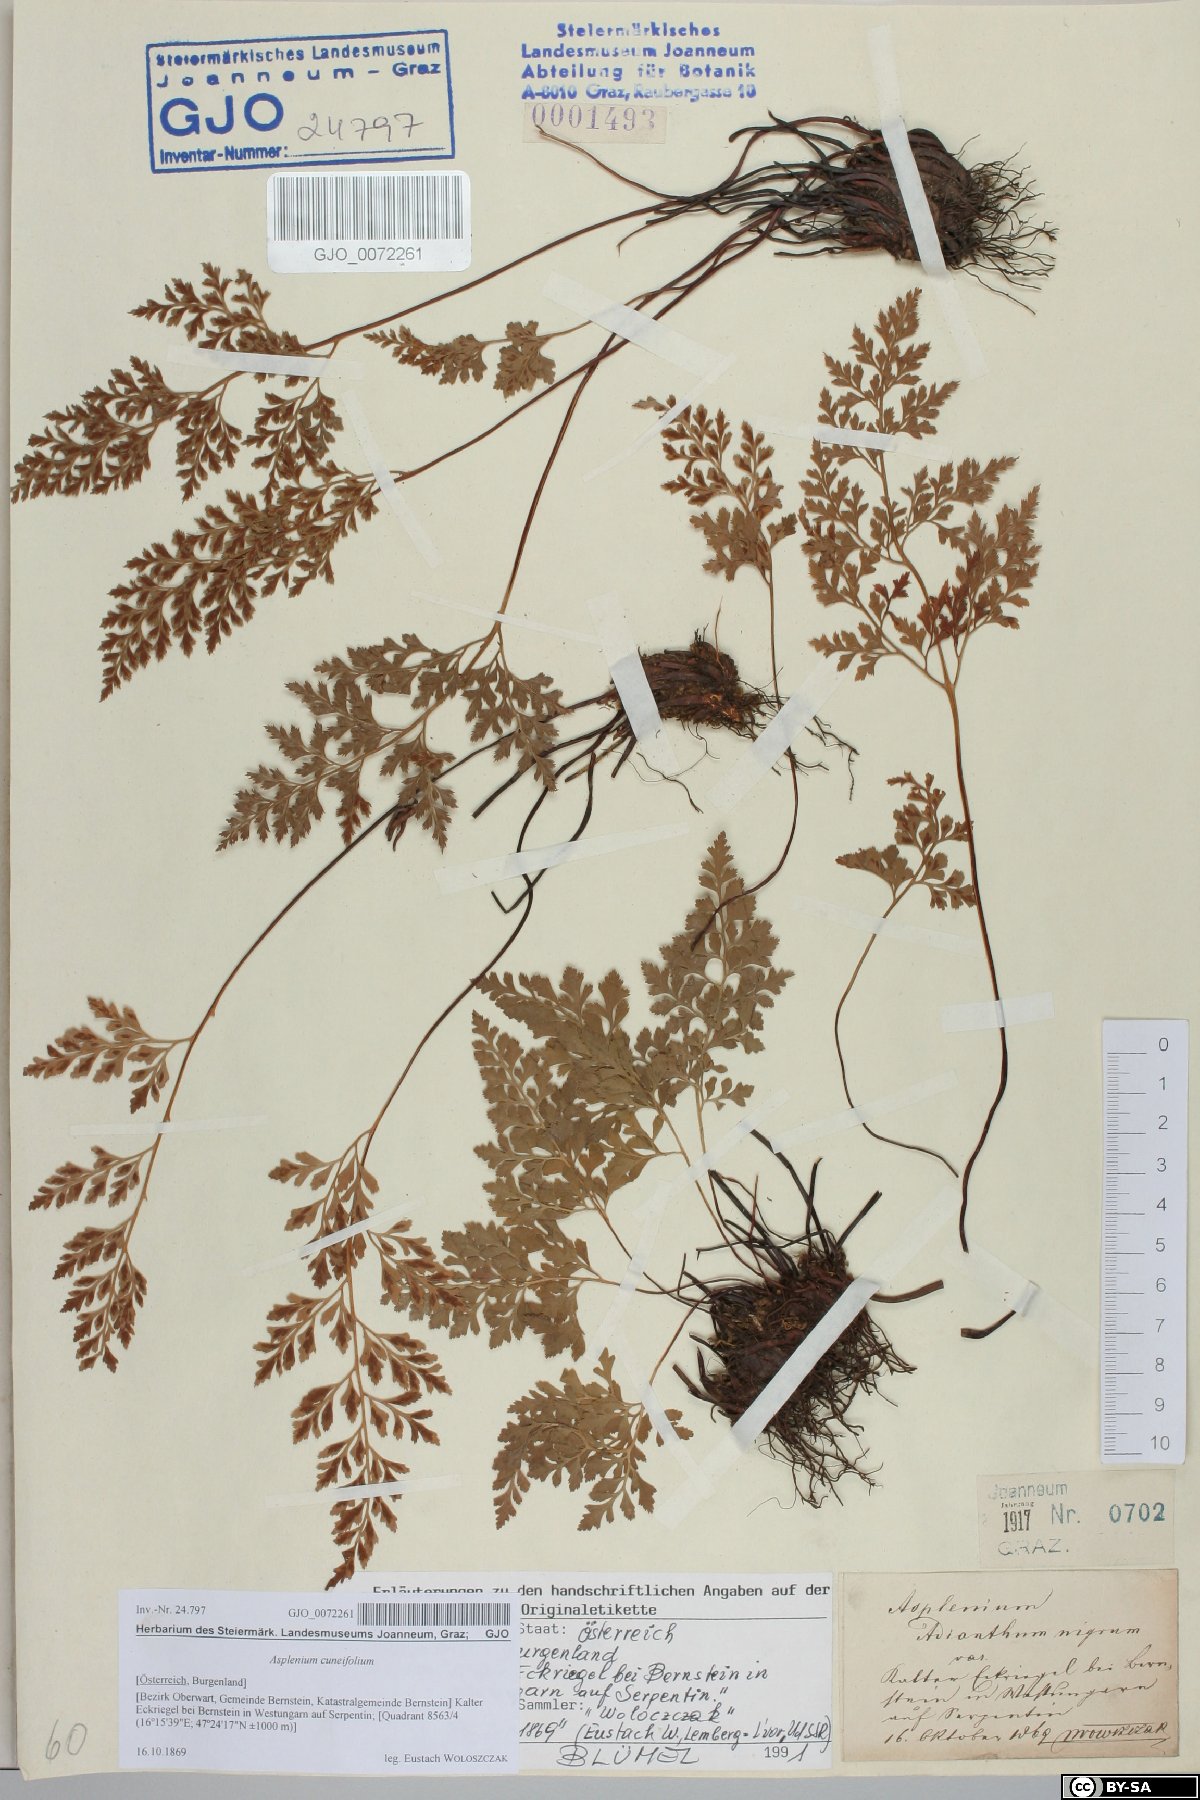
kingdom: Plantae
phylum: Tracheophyta
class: Polypodiopsida
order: Polypodiales
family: Aspleniaceae
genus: Asplenium
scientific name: Asplenium cuneifolium
